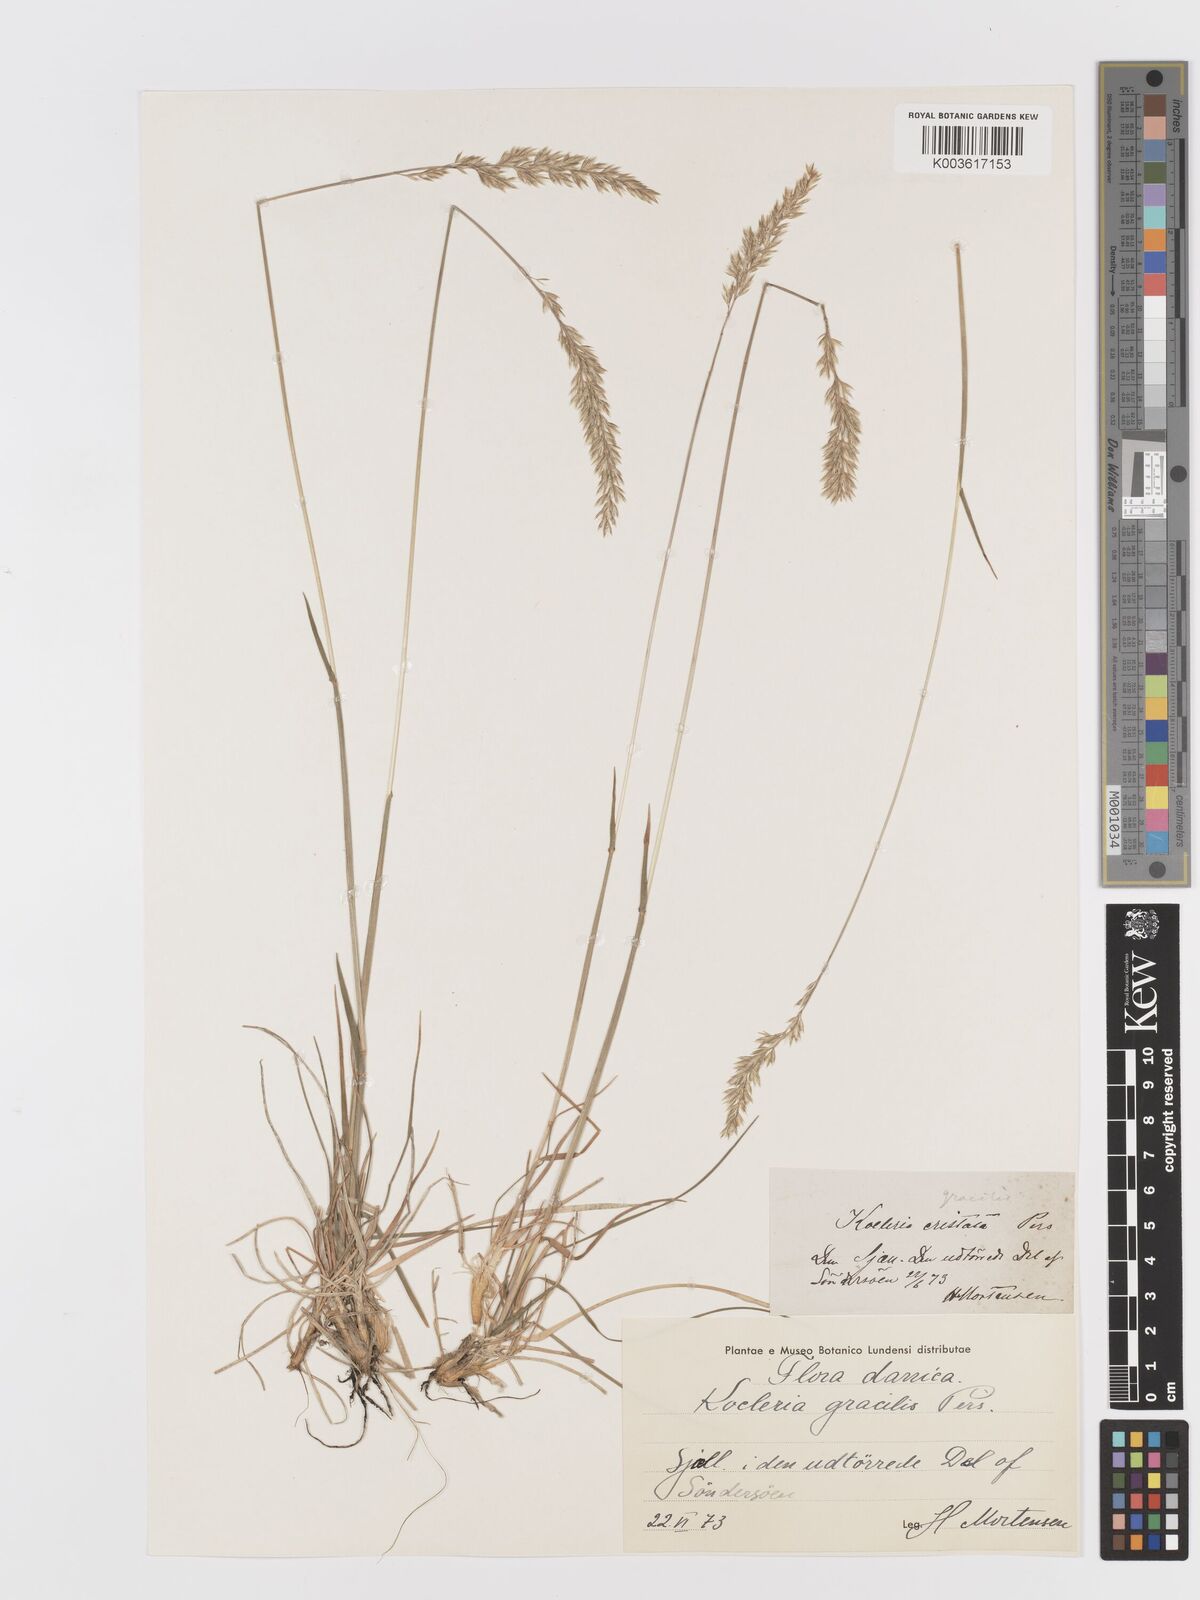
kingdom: Plantae
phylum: Tracheophyta
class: Liliopsida
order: Poales
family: Poaceae
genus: Koeleria
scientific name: Koeleria macrantha
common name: Crested hair-grass
